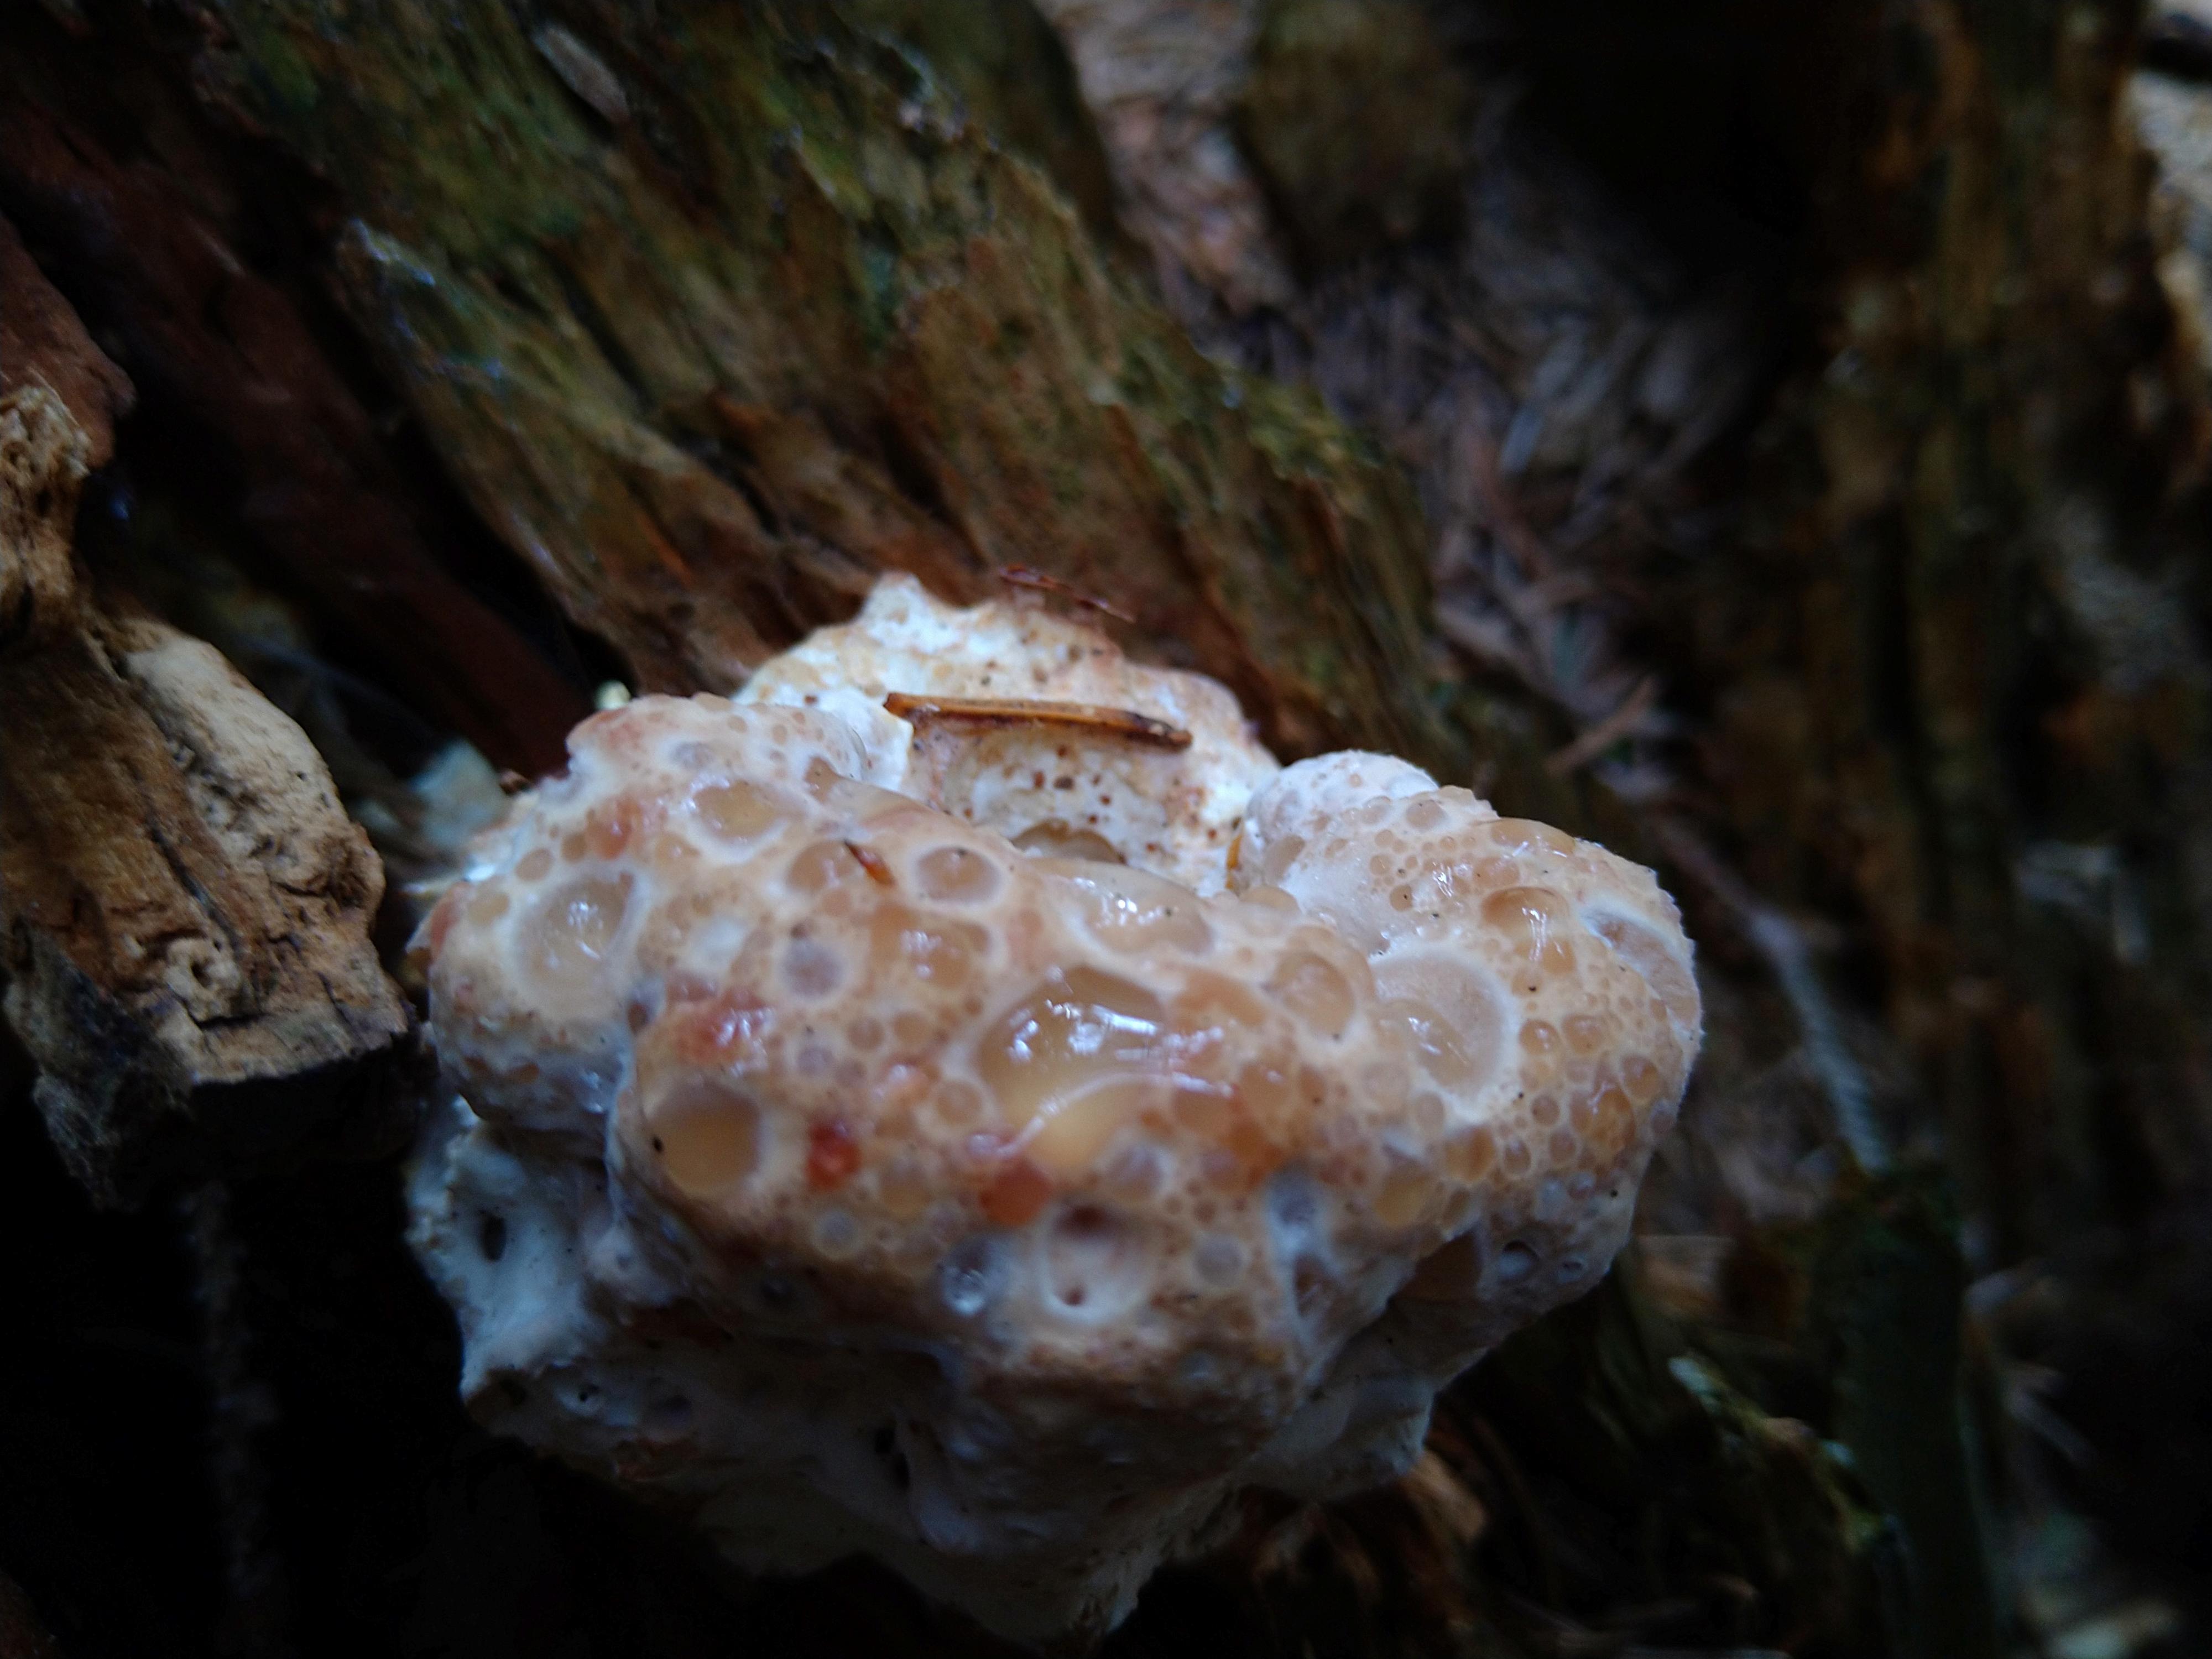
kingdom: Fungi
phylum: Basidiomycota
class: Agaricomycetes
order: Polyporales
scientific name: Polyporales
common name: poresvampordenen
